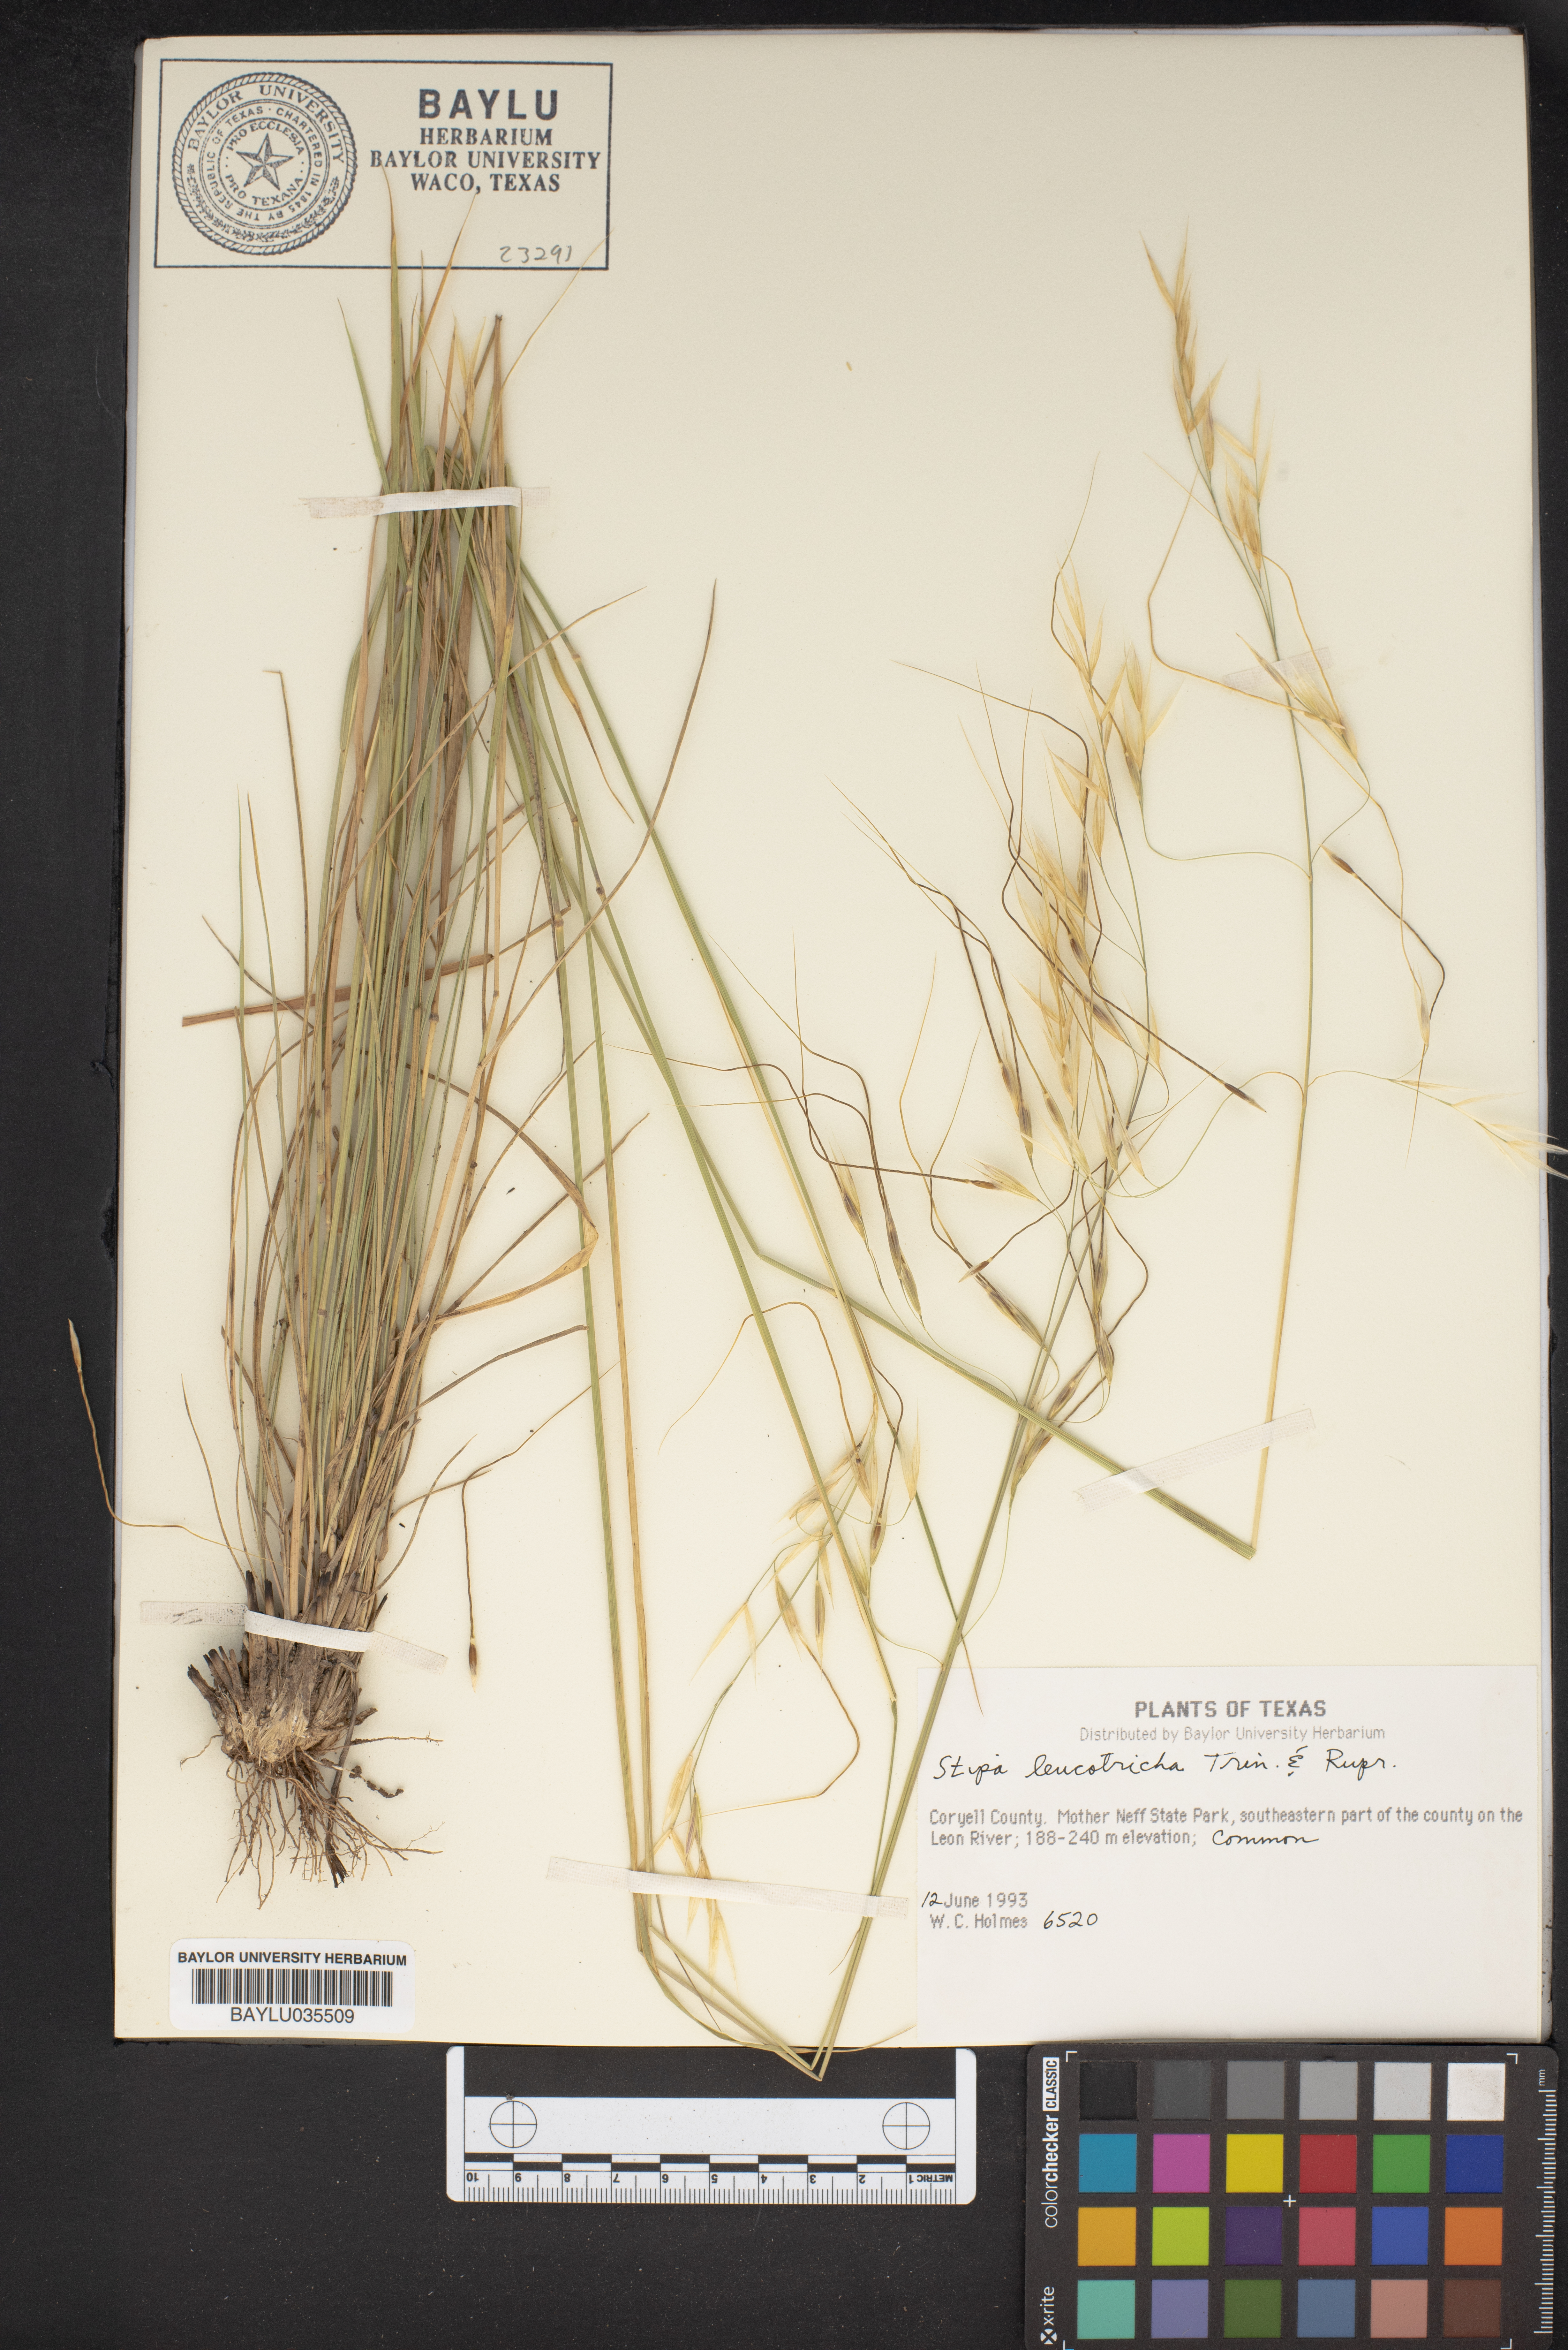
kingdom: Plantae
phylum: Tracheophyta
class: Liliopsida
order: Poales
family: Poaceae
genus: Nassella
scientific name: Nassella leucotricha
